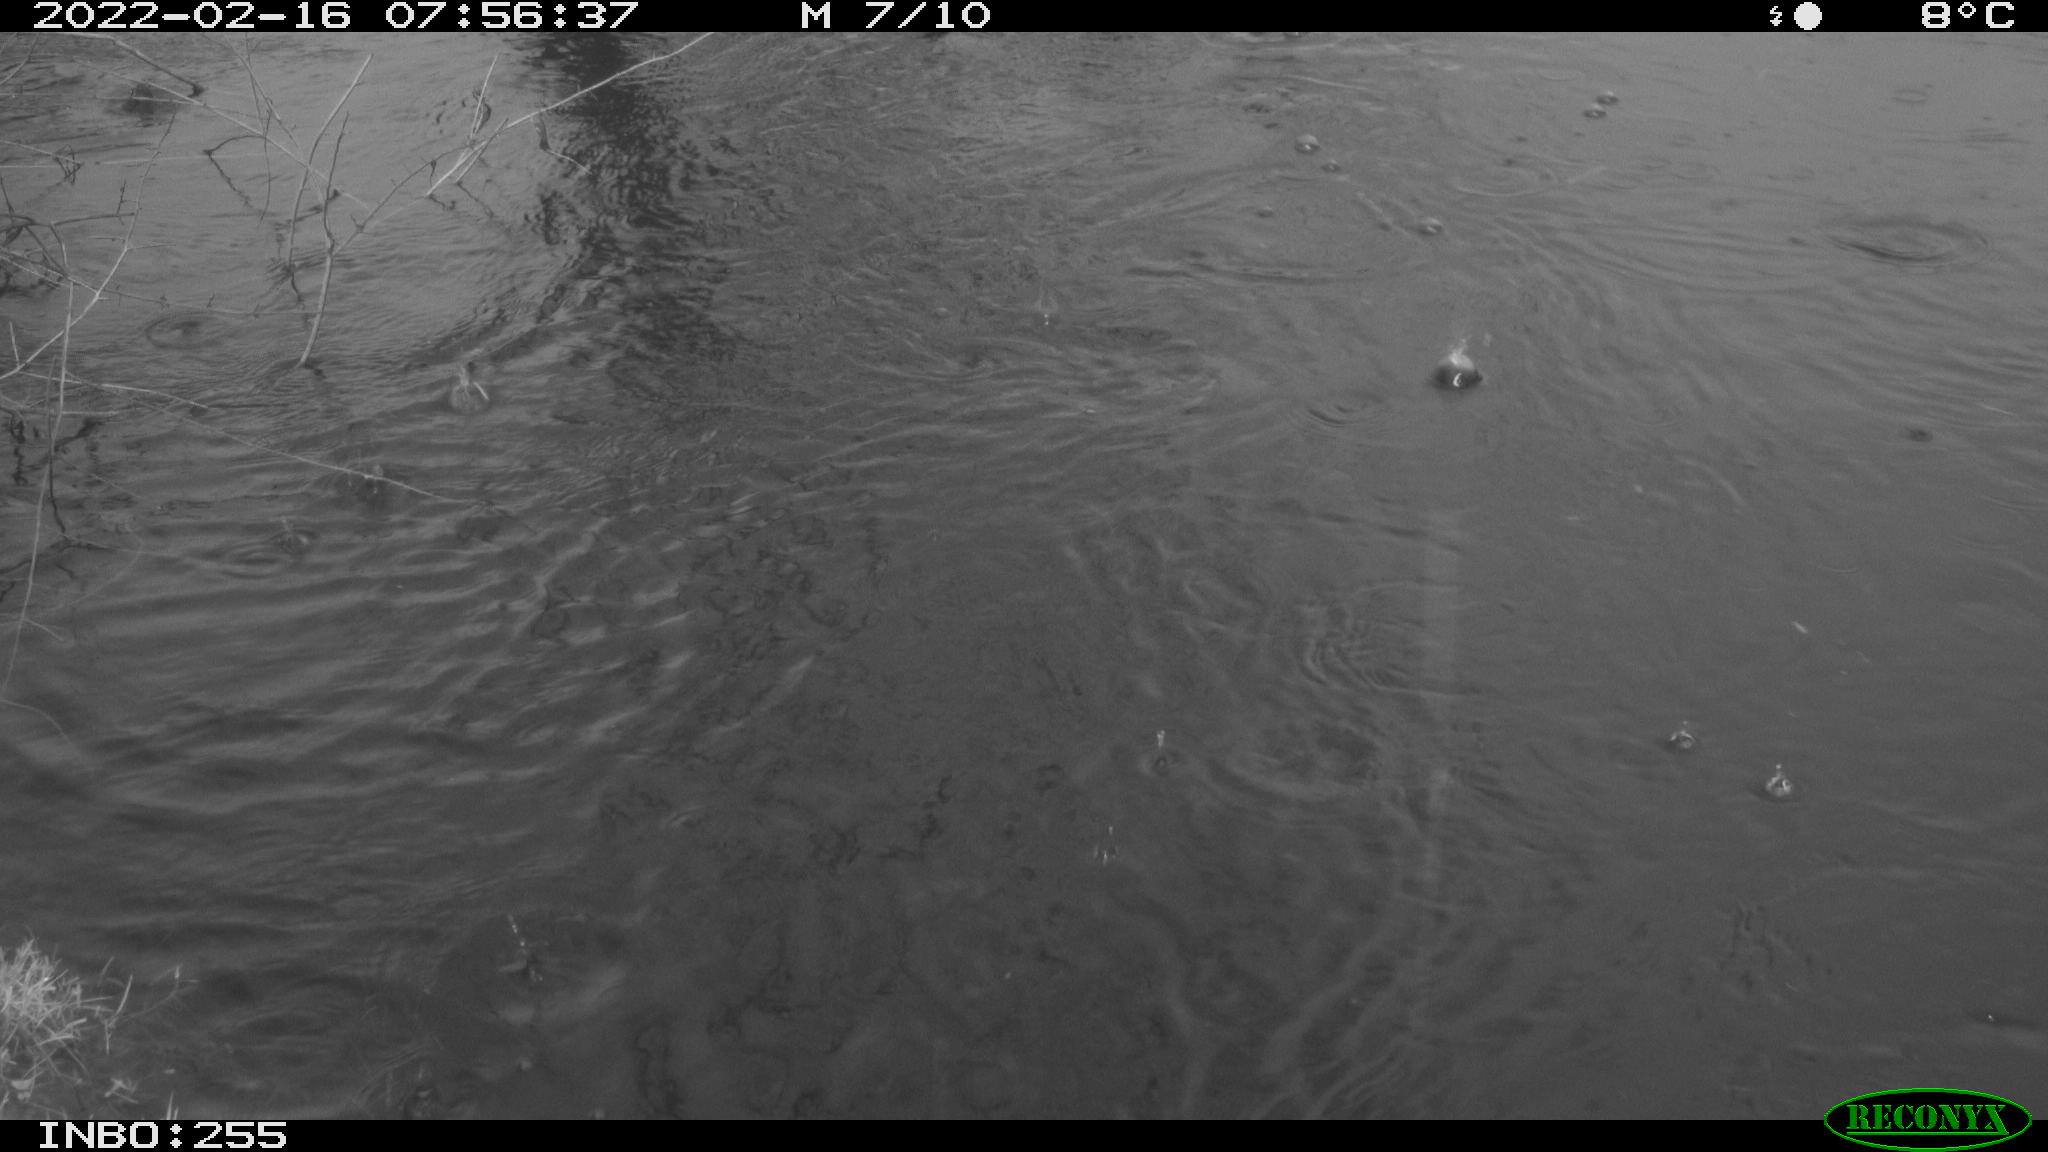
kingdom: Animalia
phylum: Chordata
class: Aves
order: Gruiformes
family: Rallidae
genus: Gallinula
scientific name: Gallinula chloropus
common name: Common moorhen
